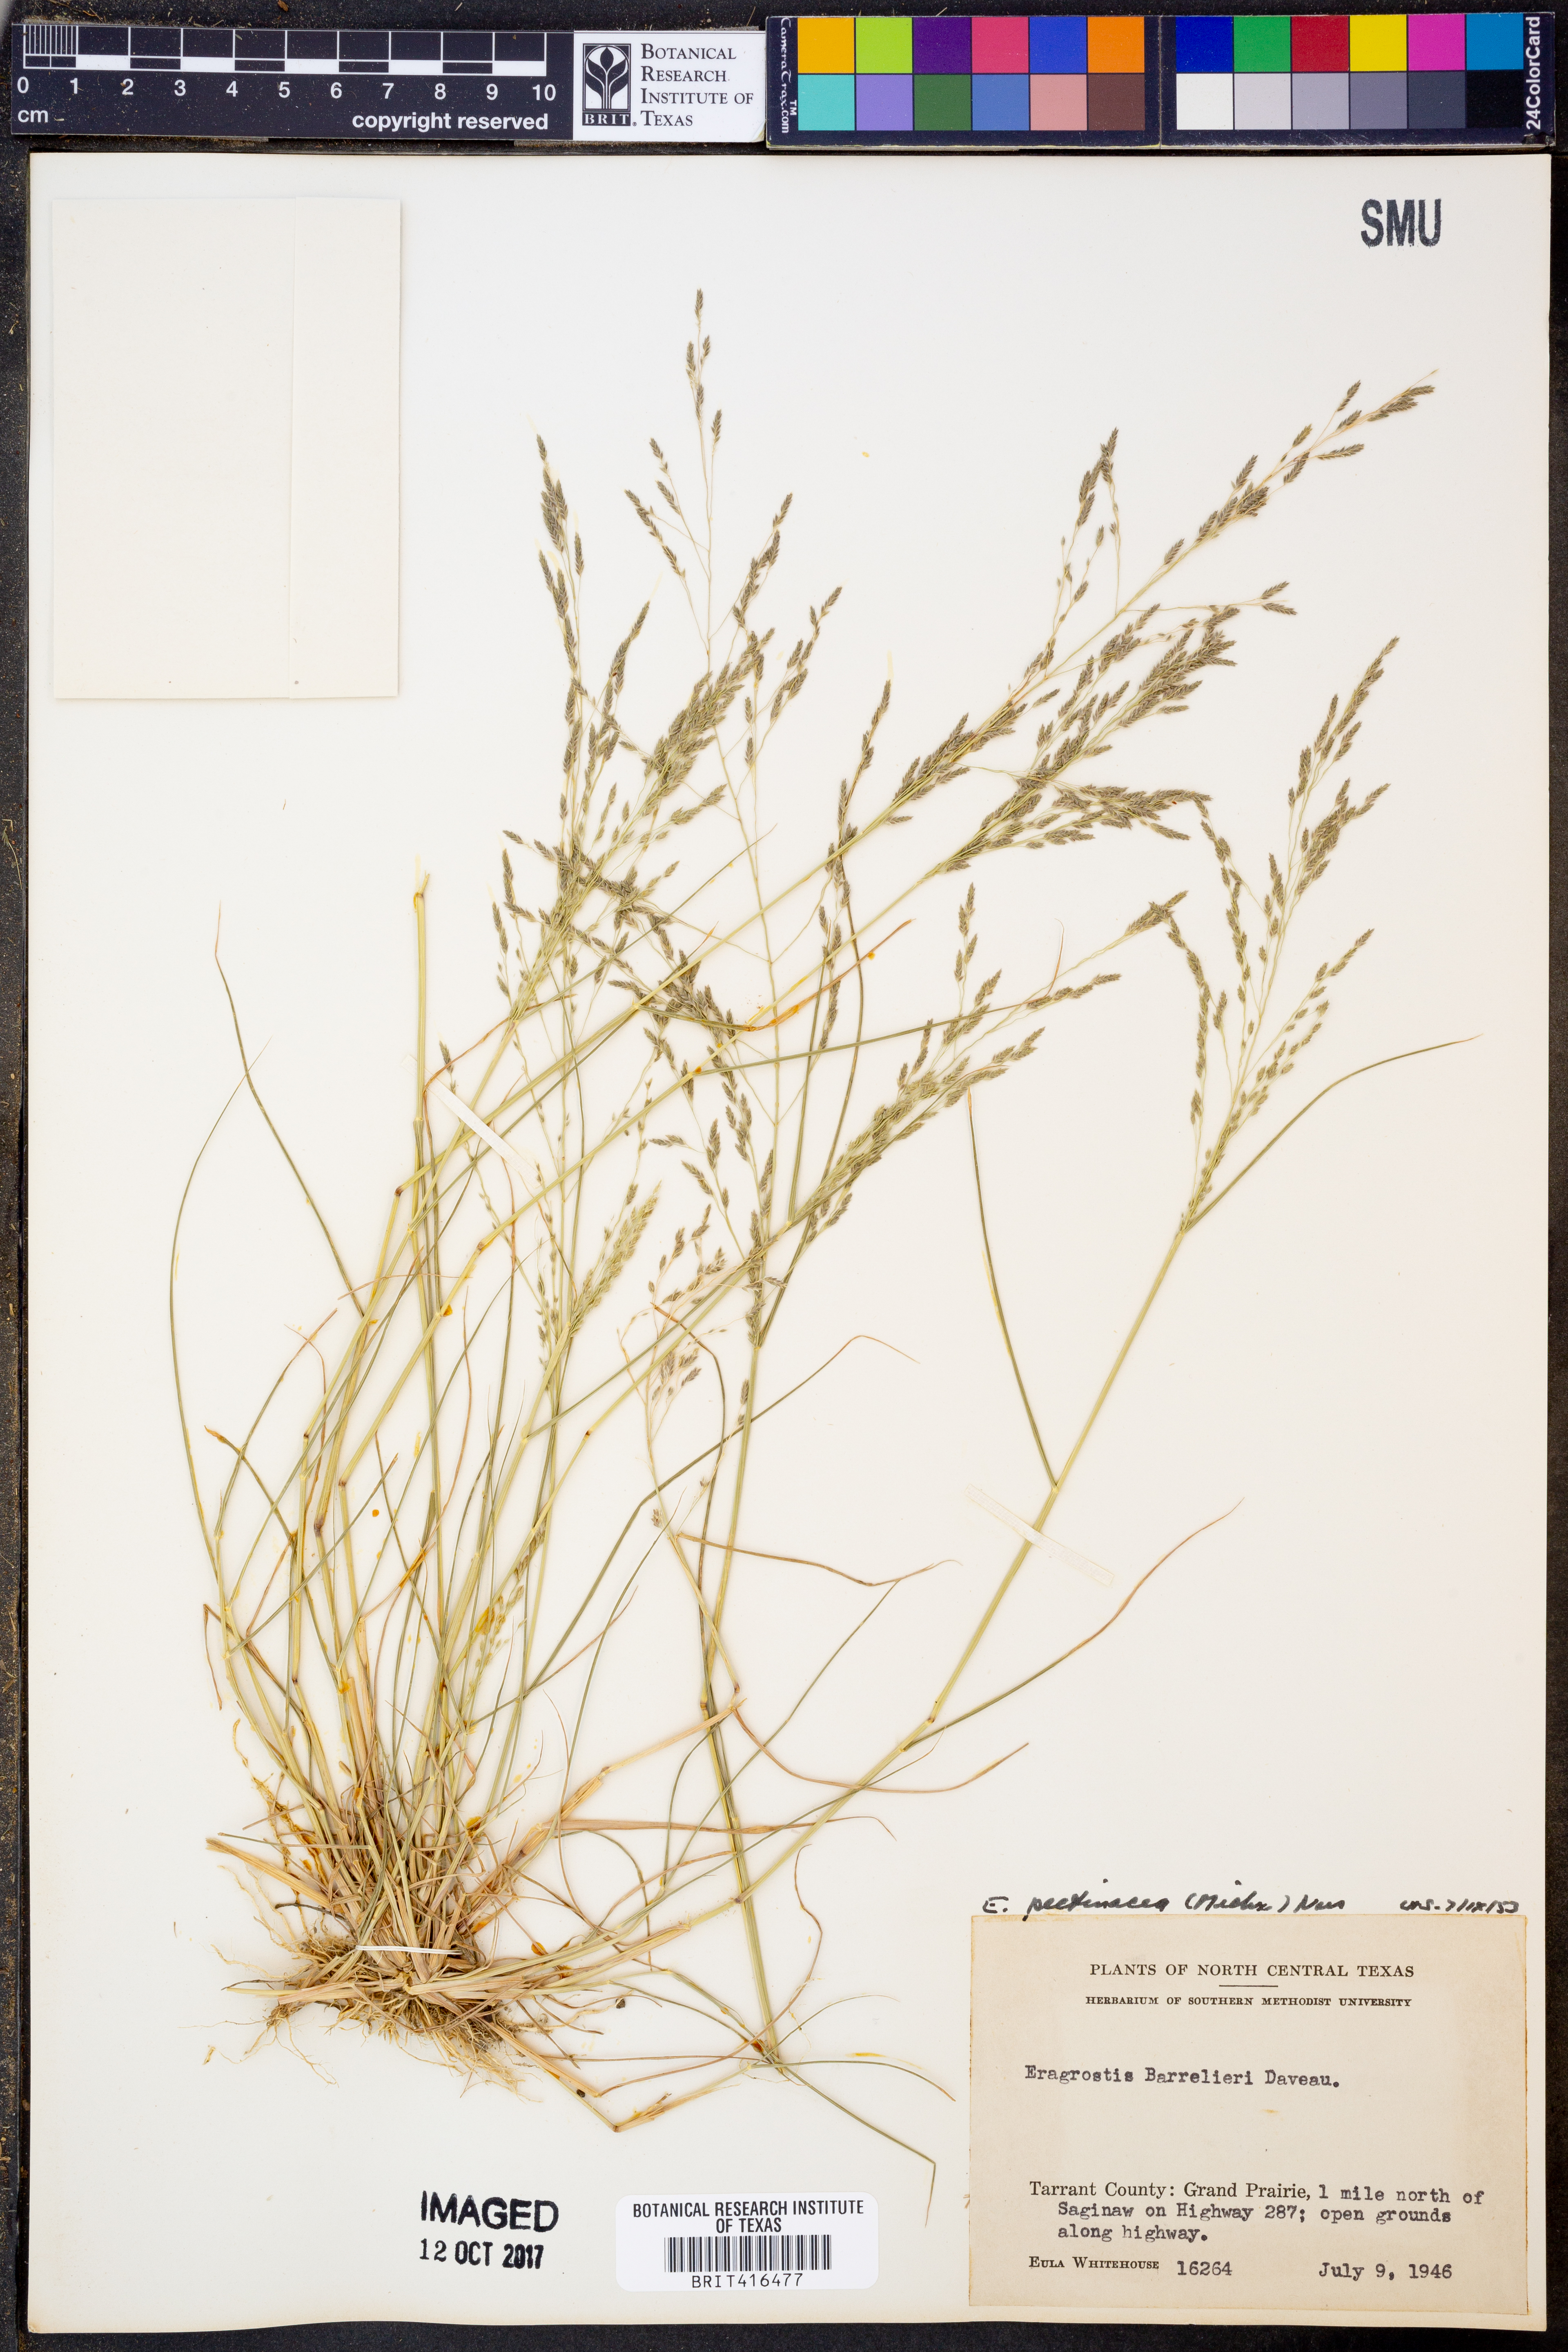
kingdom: Plantae
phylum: Tracheophyta
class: Liliopsida
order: Poales
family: Poaceae
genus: Eragrostis
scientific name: Eragrostis pectinacea
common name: Tufted lovegrass
